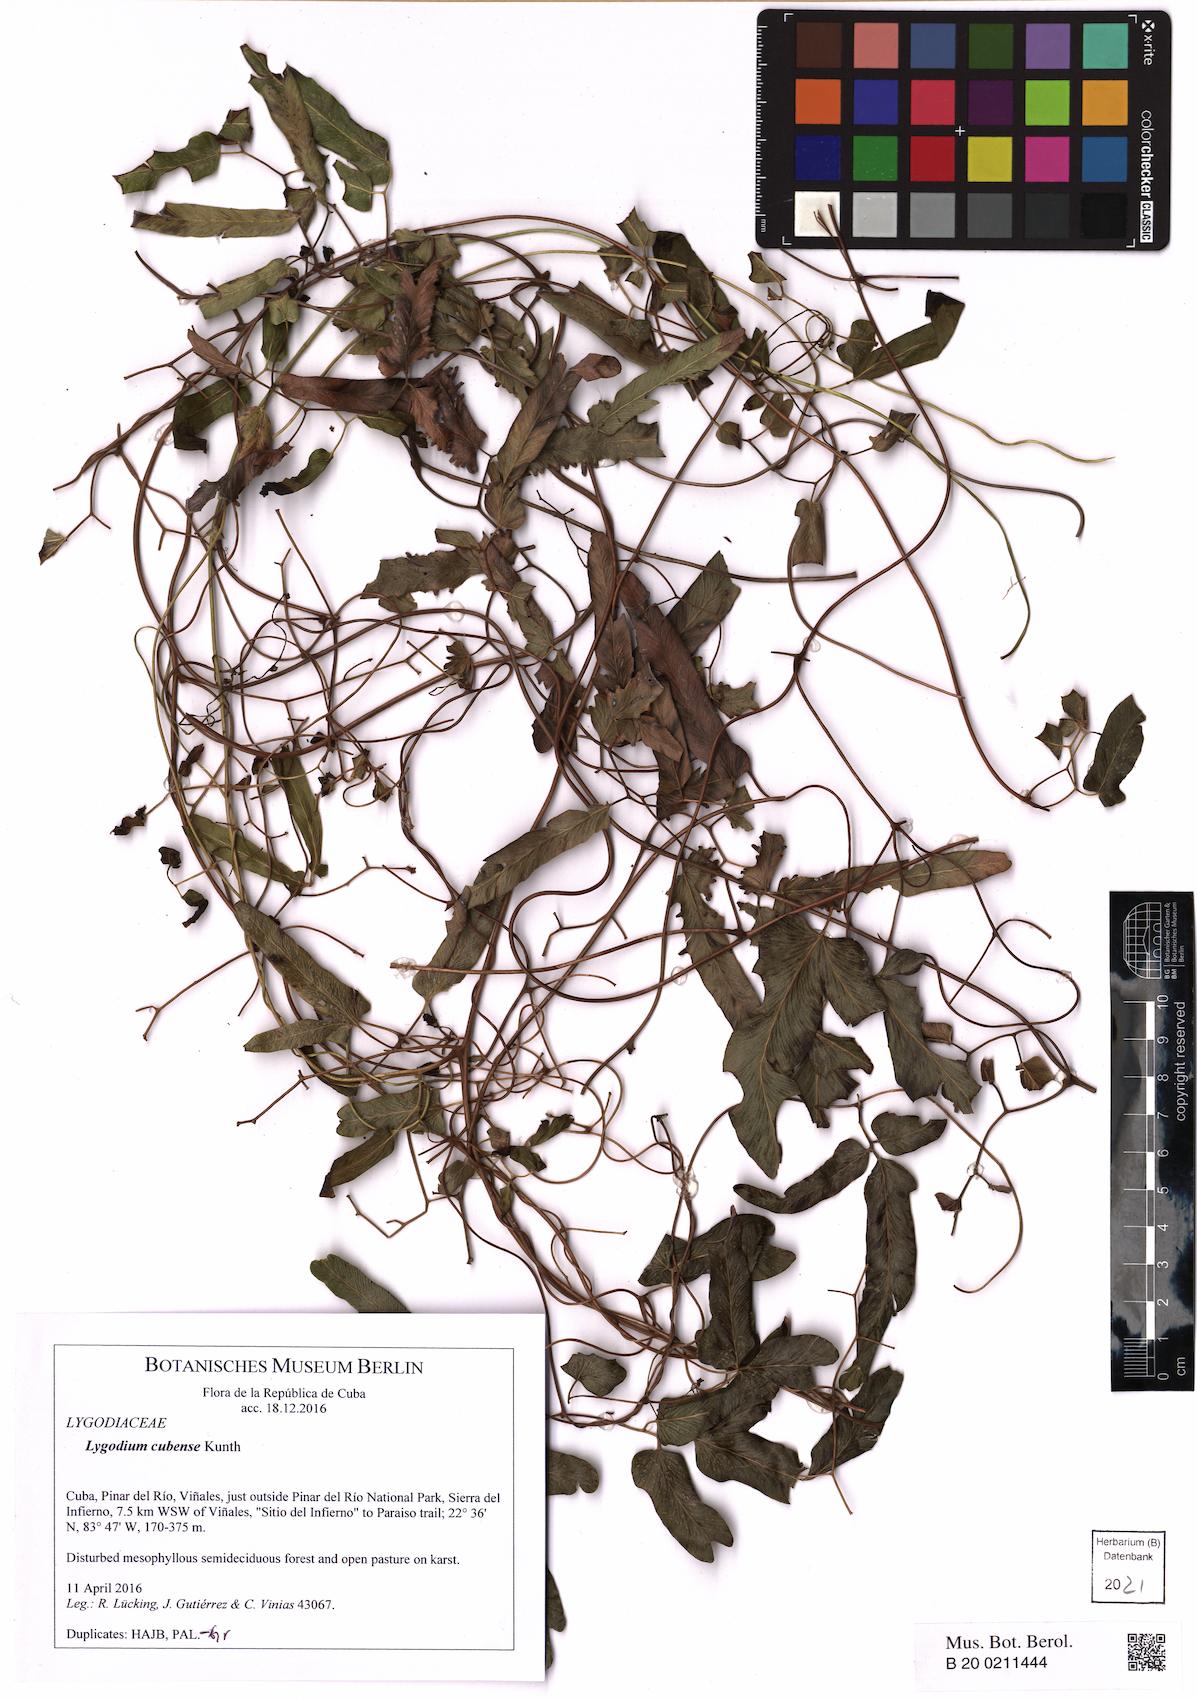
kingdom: Plantae
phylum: Tracheophyta
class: Polypodiopsida
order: Schizaeales
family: Lygodiaceae
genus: Lygodium
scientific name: Lygodium cubense
